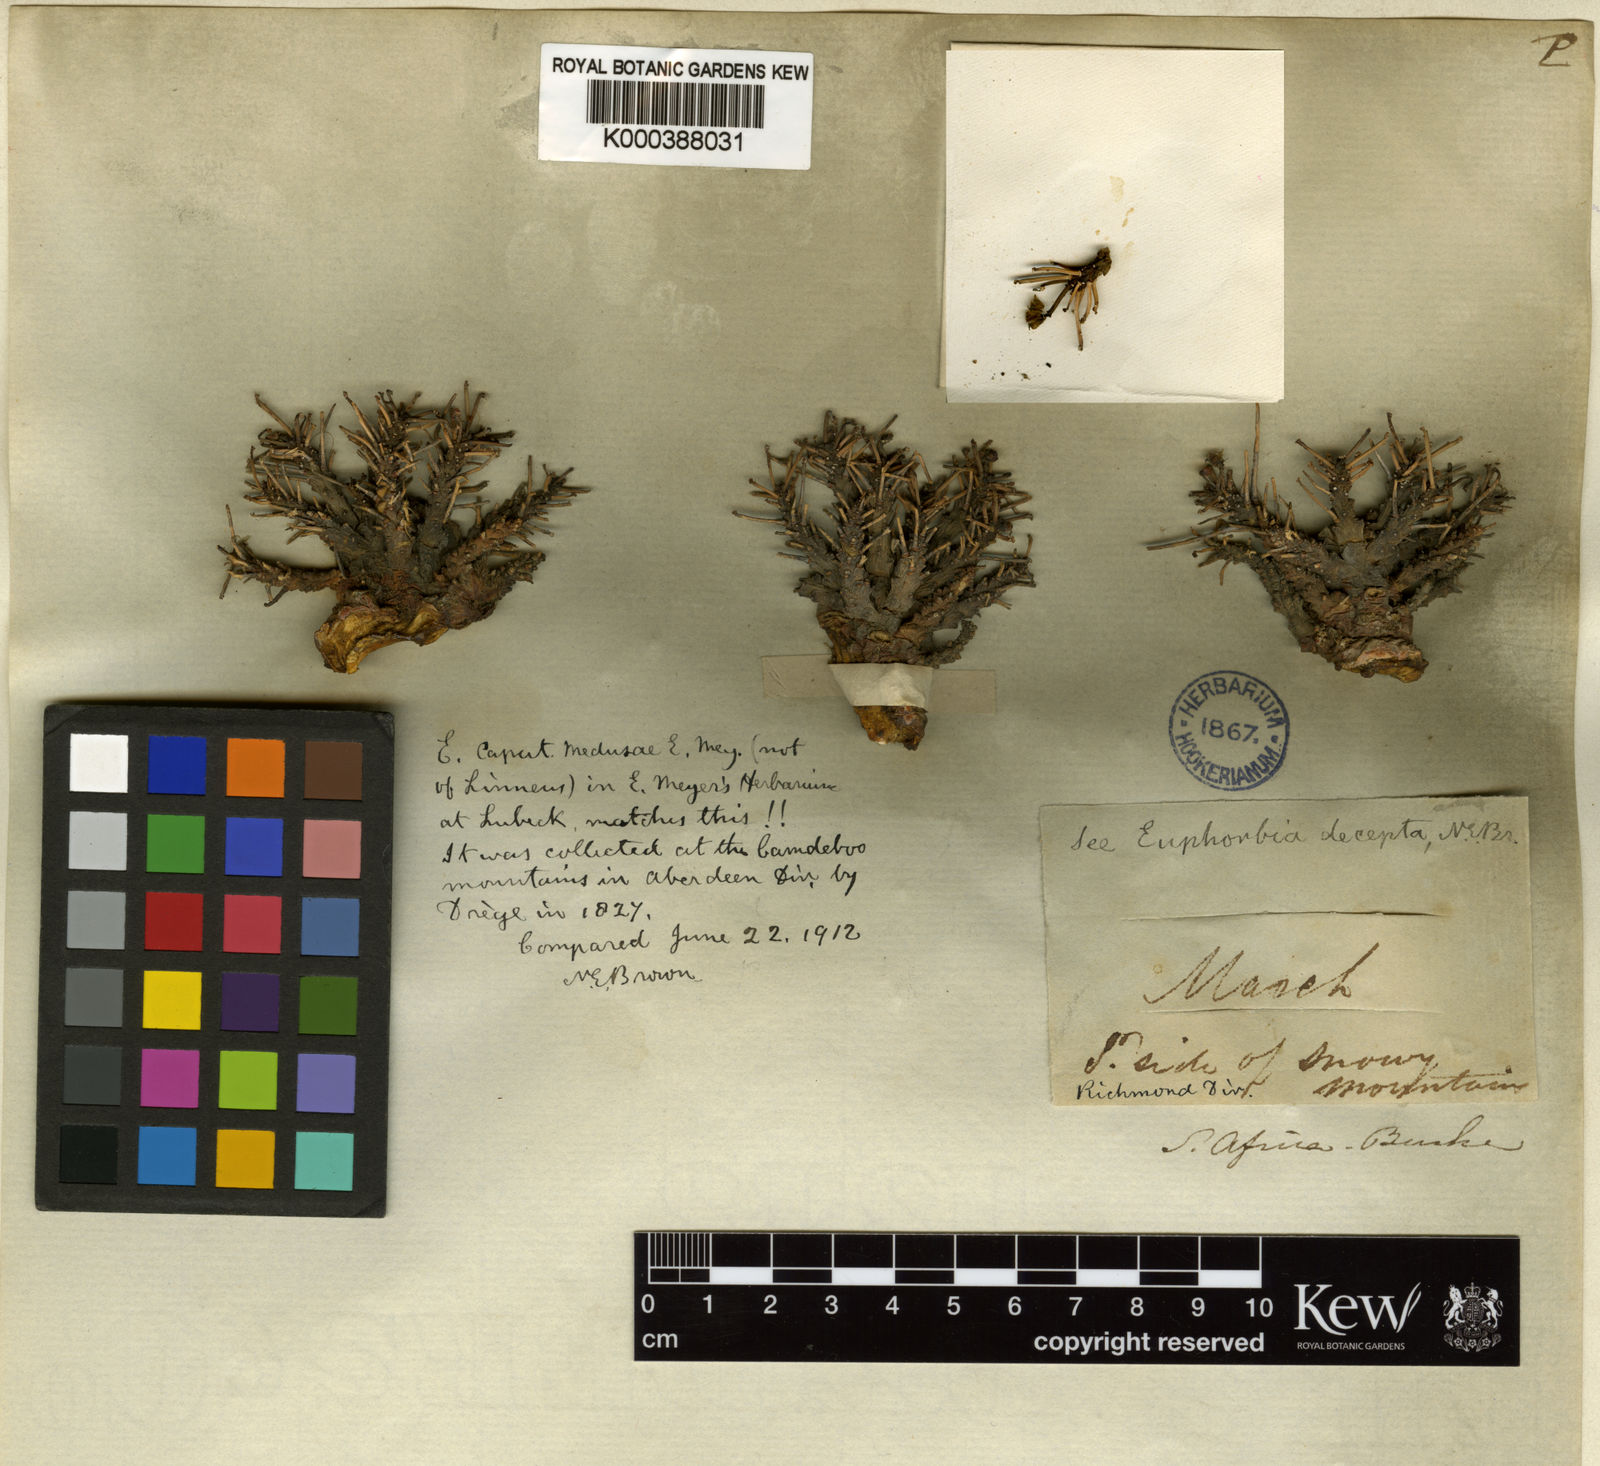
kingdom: Plantae
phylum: Tracheophyta
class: Magnoliopsida
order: Malpighiales
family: Euphorbiaceae
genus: Euphorbia
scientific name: Euphorbia decepta
